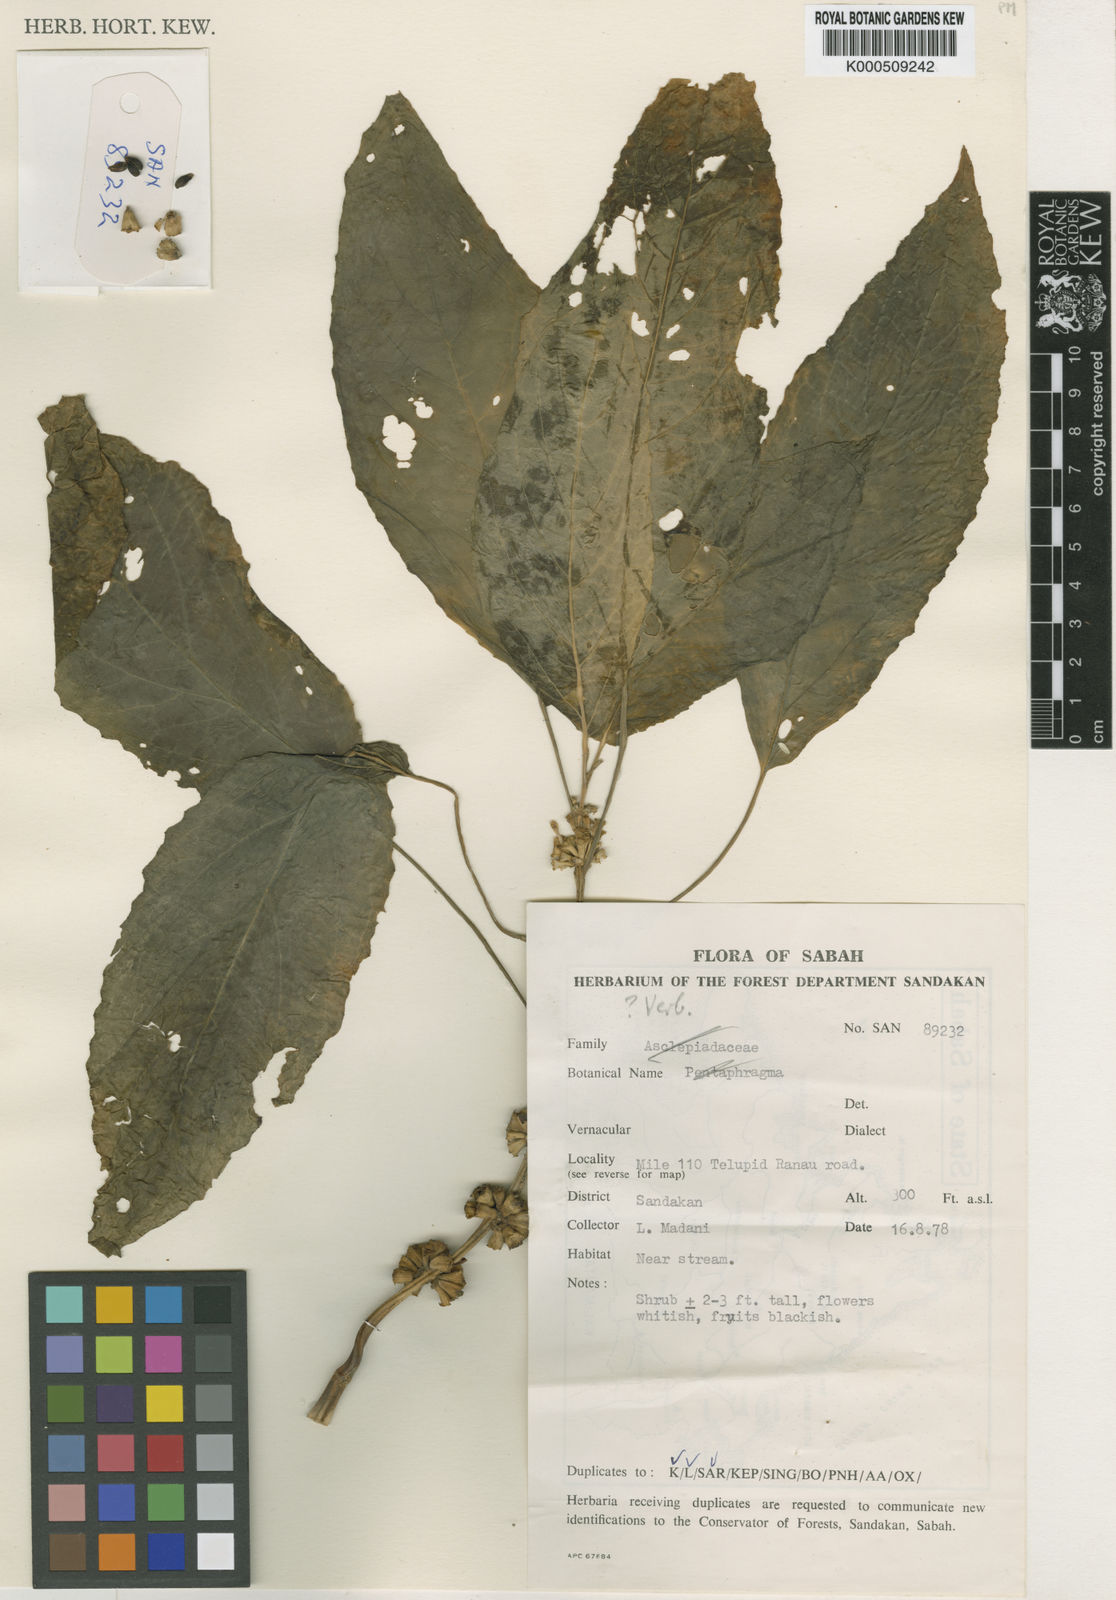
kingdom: Plantae
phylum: Tracheophyta
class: Magnoliopsida
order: Lamiales
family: Lamiaceae
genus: Paraphlomis
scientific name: Paraphlomis javanica
